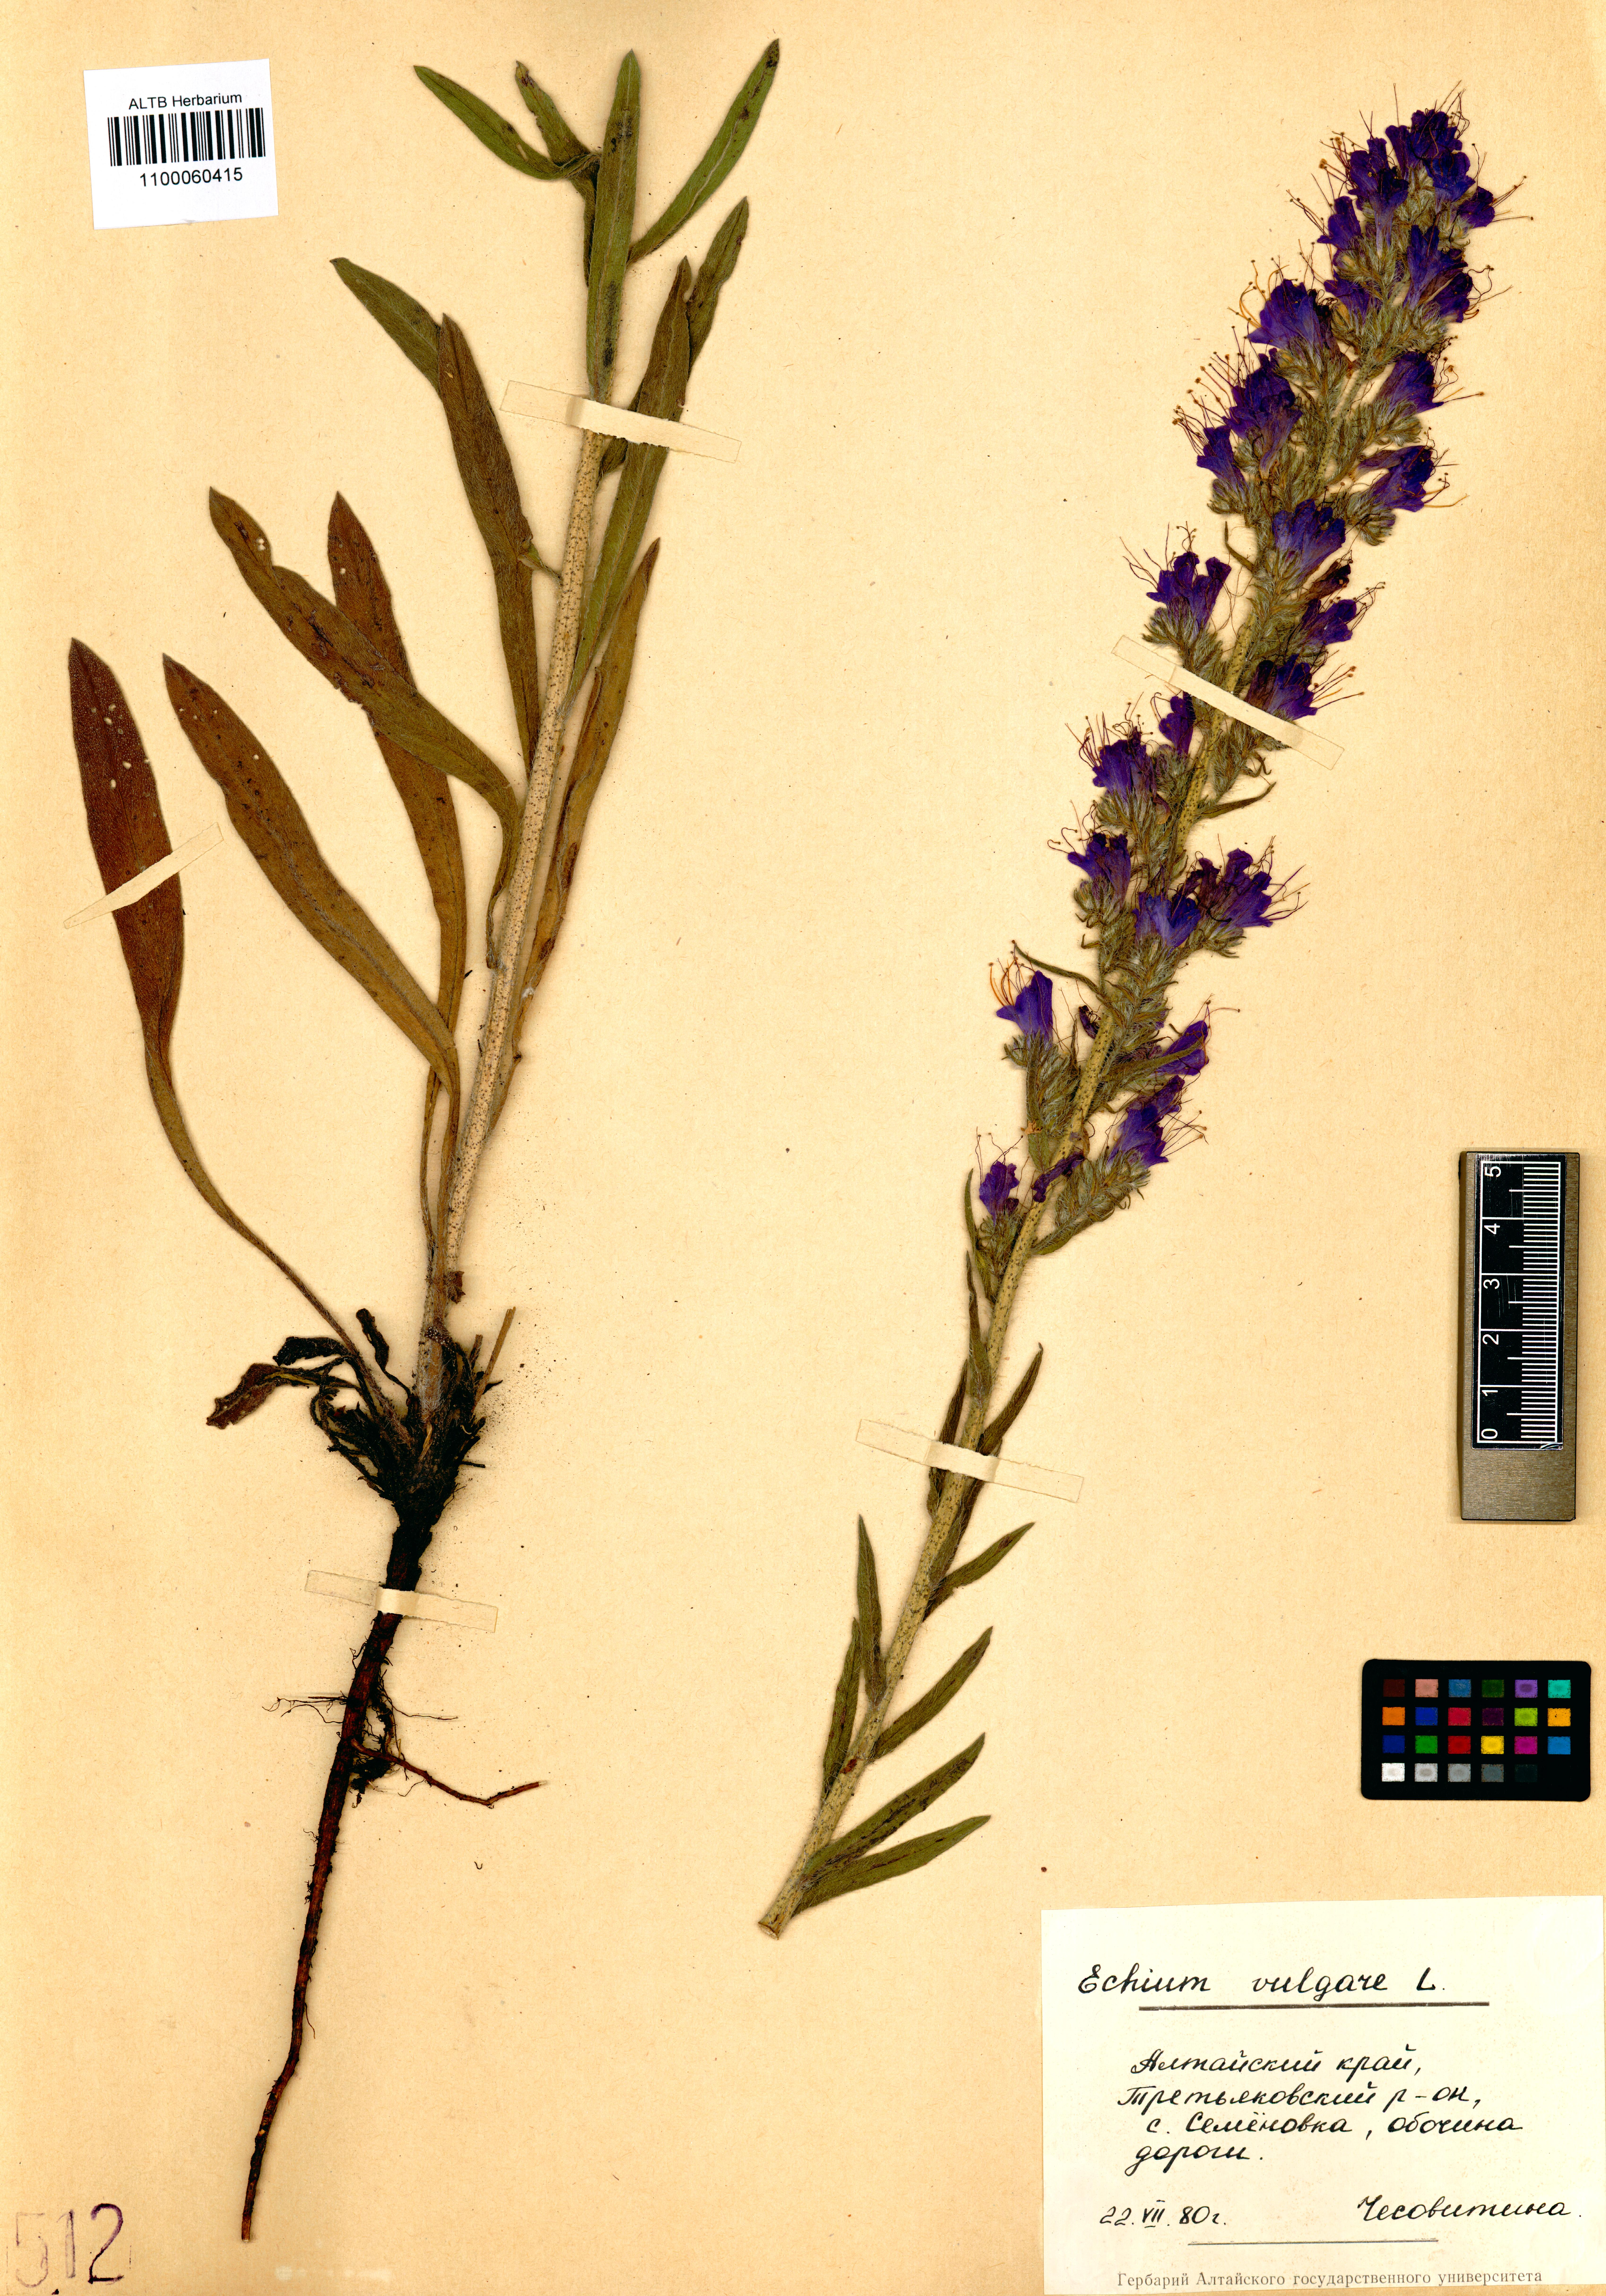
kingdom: Plantae
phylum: Tracheophyta
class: Magnoliopsida
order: Boraginales
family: Boraginaceae
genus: Echium
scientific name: Echium vulgare
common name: Common viper's bugloss
